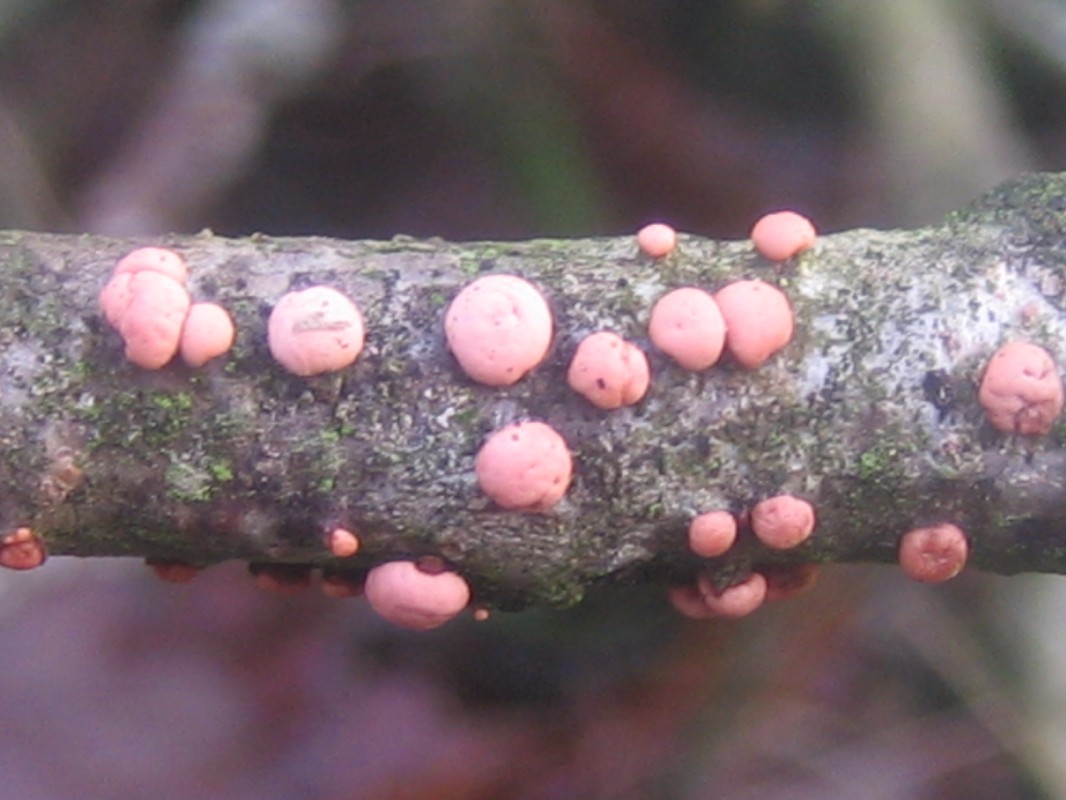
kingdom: Fungi
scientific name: Fungi
